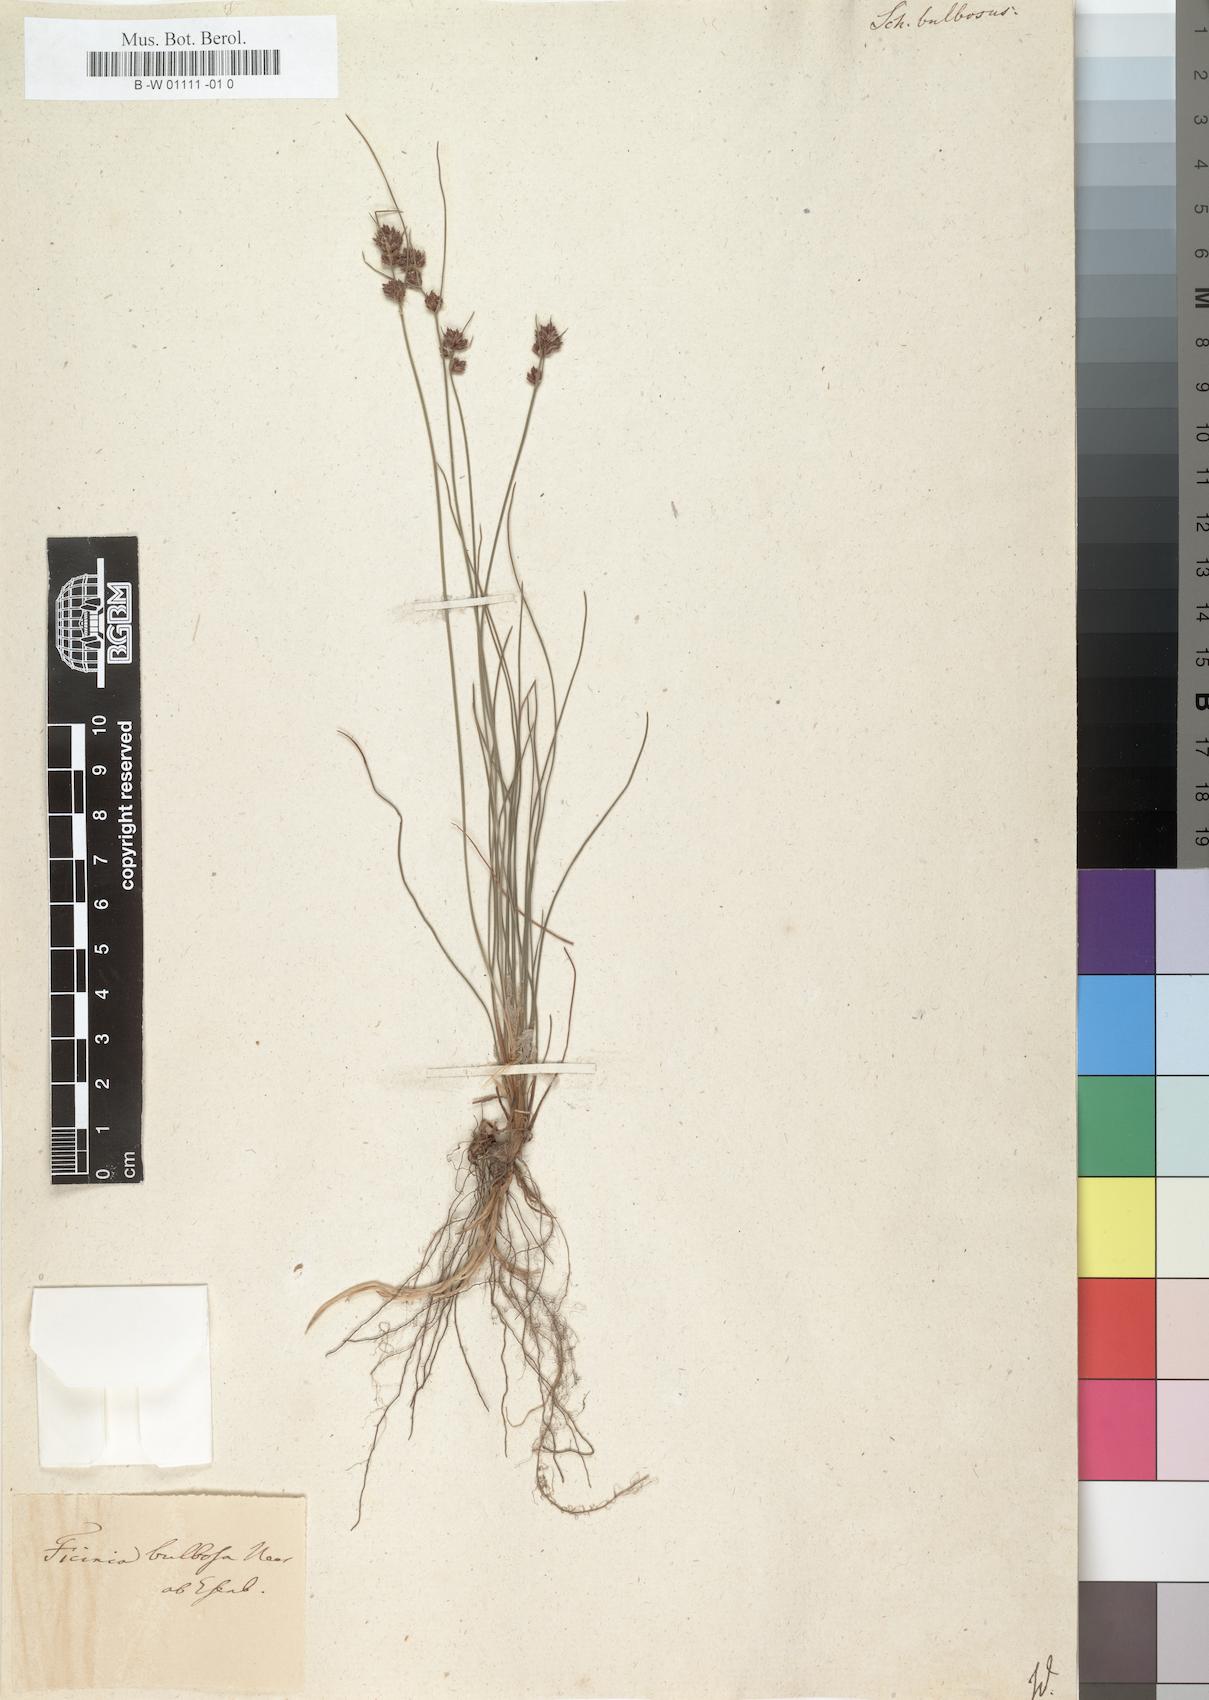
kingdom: Plantae
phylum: Tracheophyta
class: Liliopsida
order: Poales
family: Cyperaceae
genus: Ficinia
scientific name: Ficinia
